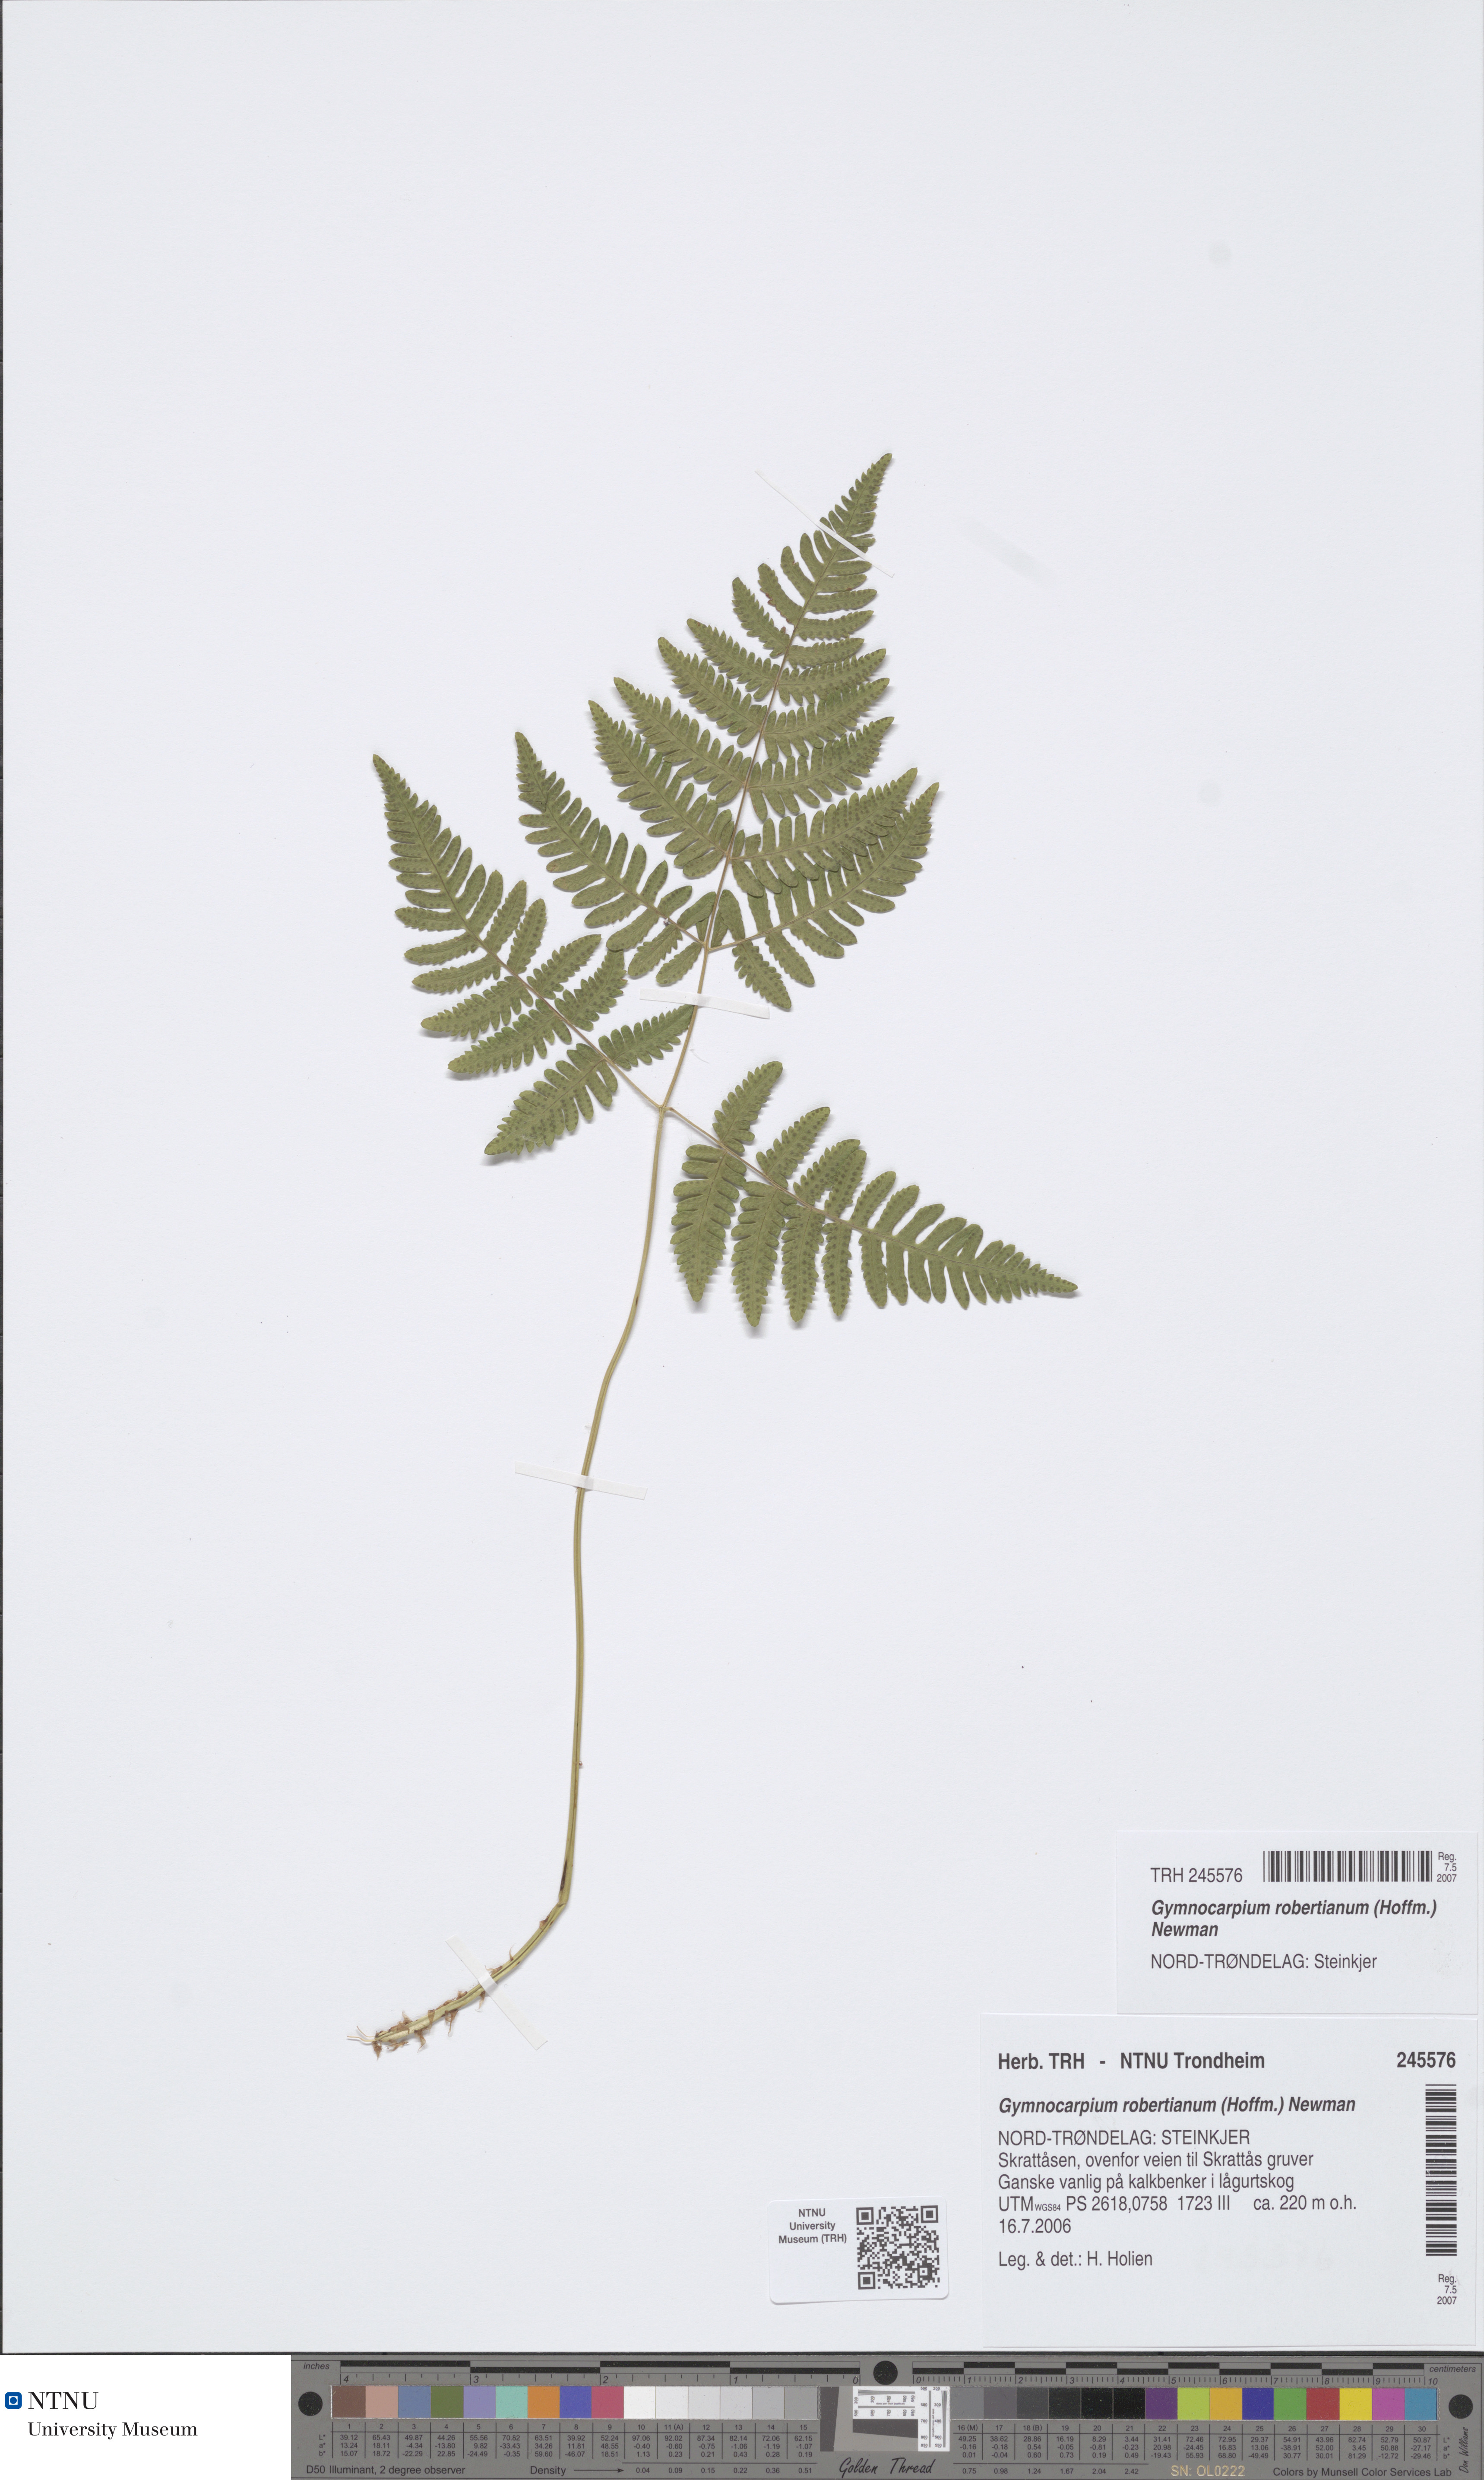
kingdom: Plantae
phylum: Tracheophyta
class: Polypodiopsida
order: Polypodiales
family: Cystopteridaceae
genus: Gymnocarpium
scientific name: Gymnocarpium robertianum
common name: Limestone fern
